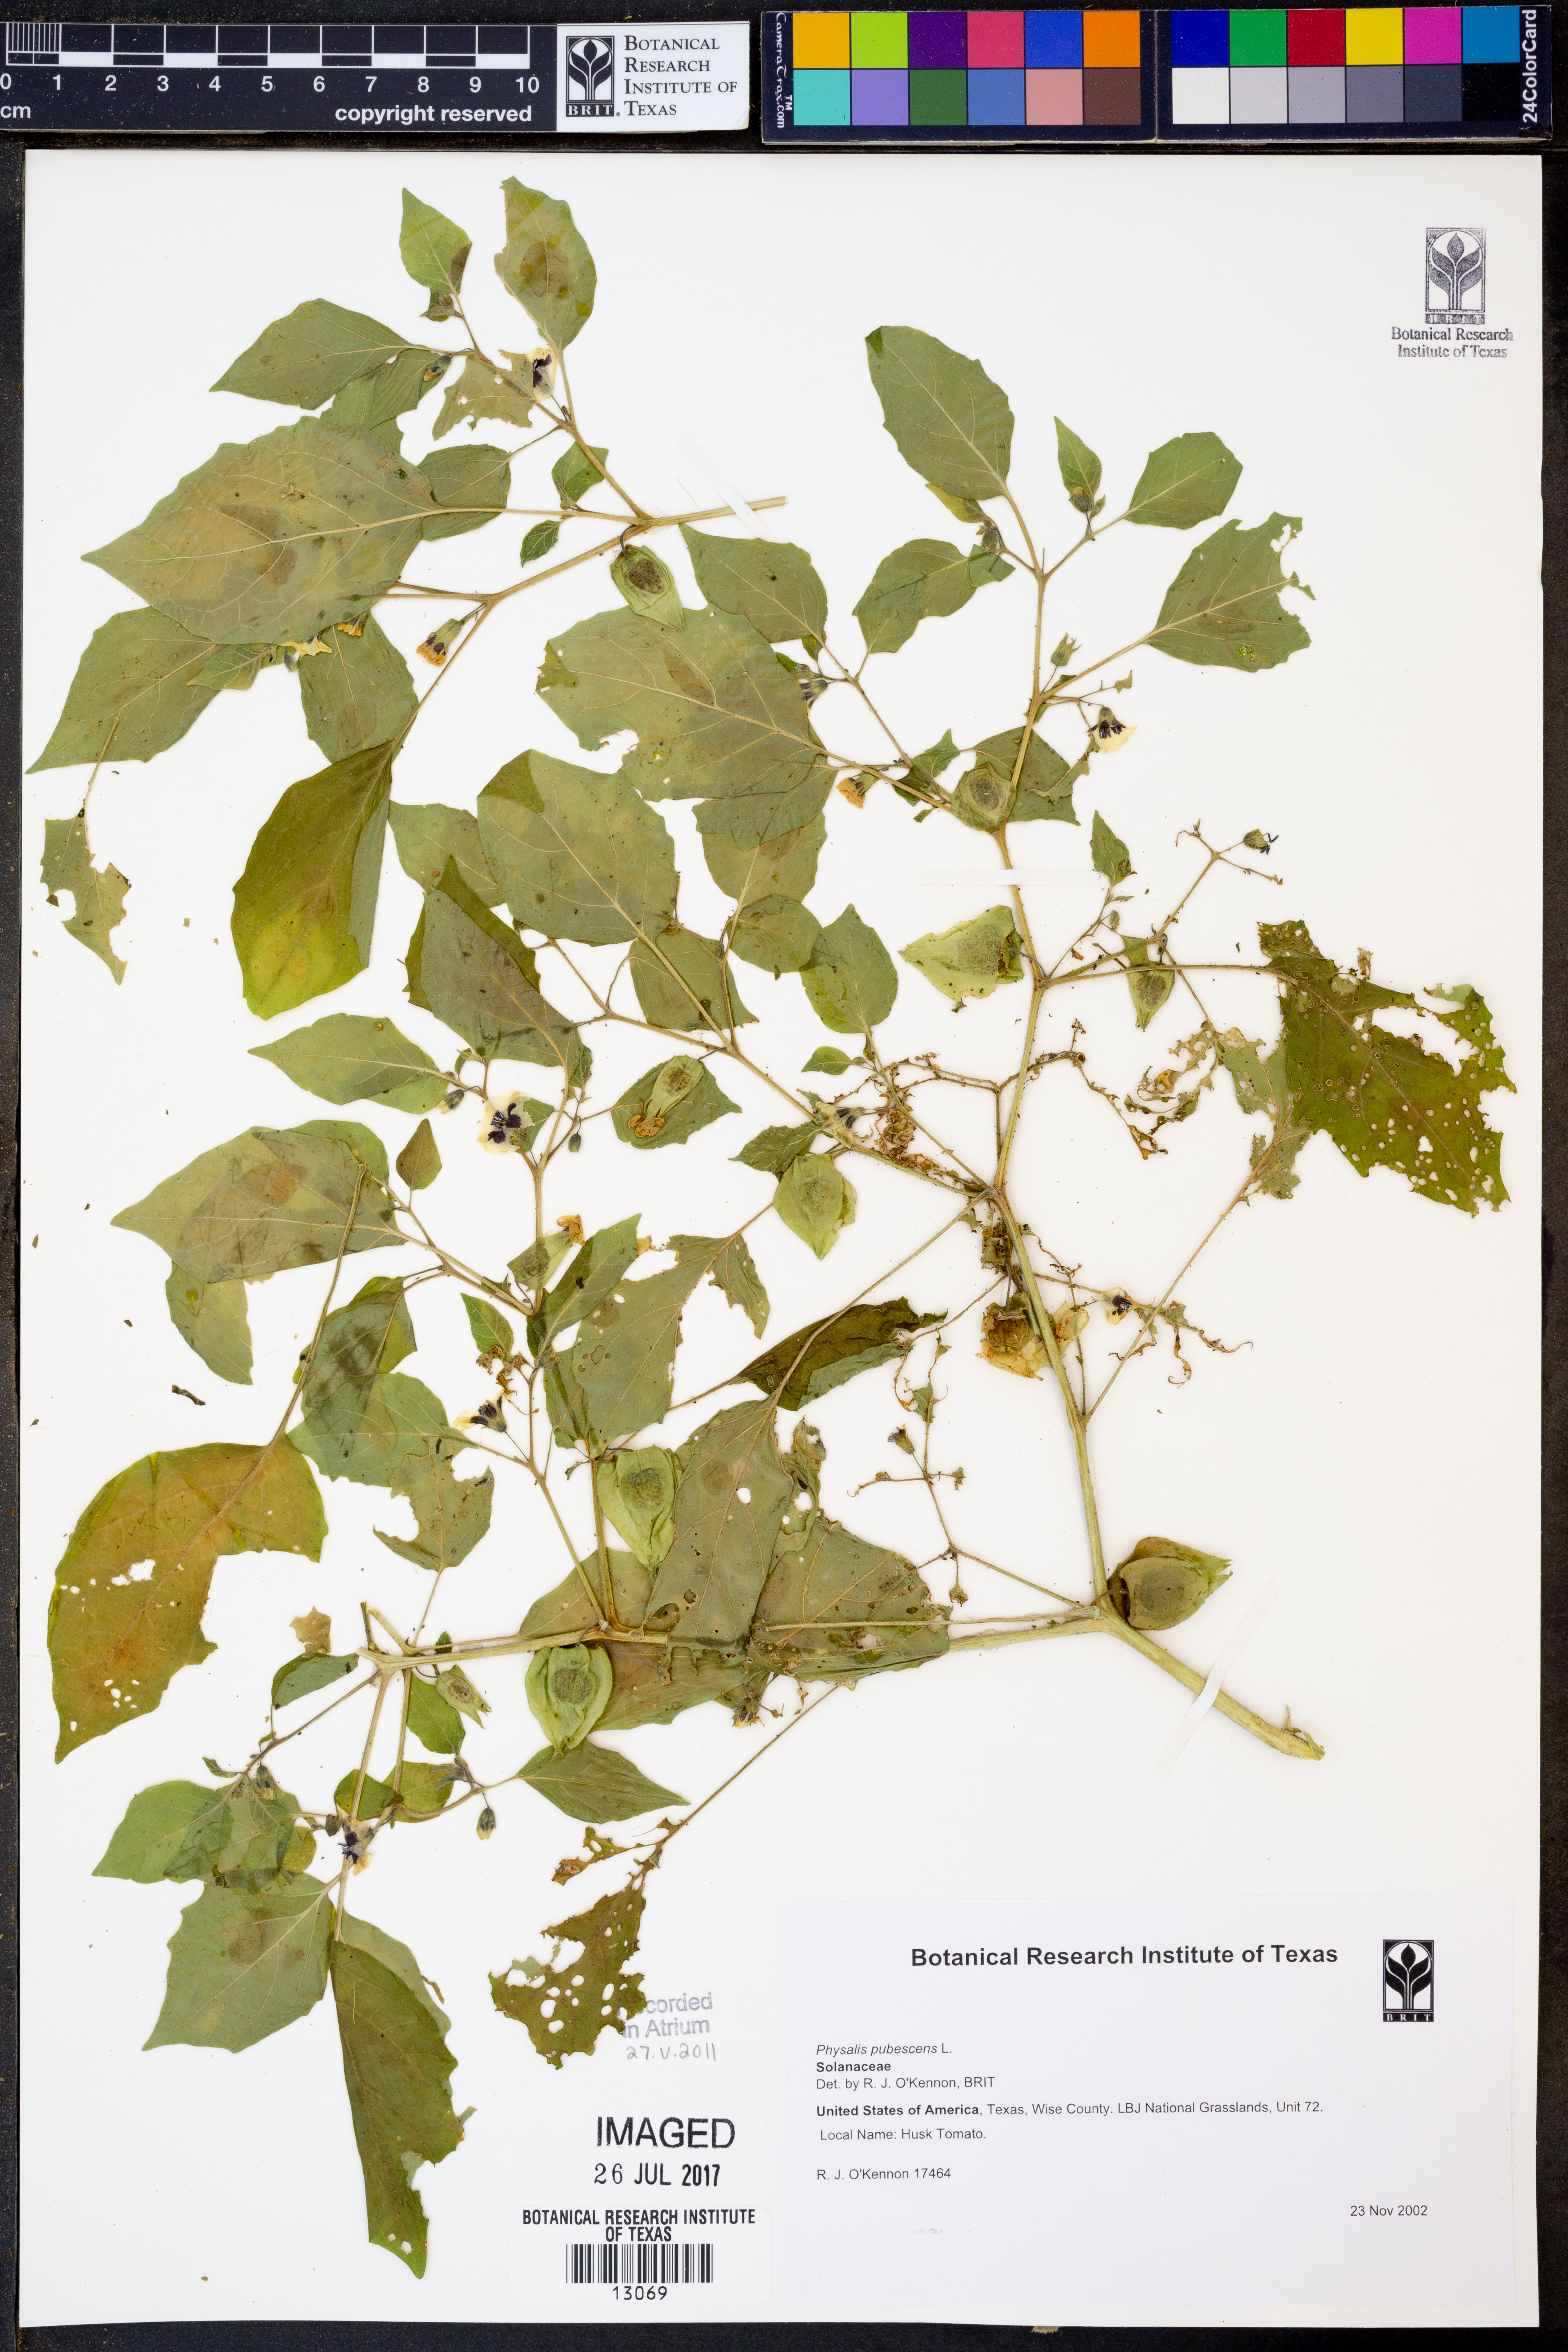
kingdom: Plantae
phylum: Tracheophyta
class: Magnoliopsida
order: Solanales
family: Solanaceae
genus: Physalis
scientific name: Physalis pubescens
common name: Downy ground-cherry
